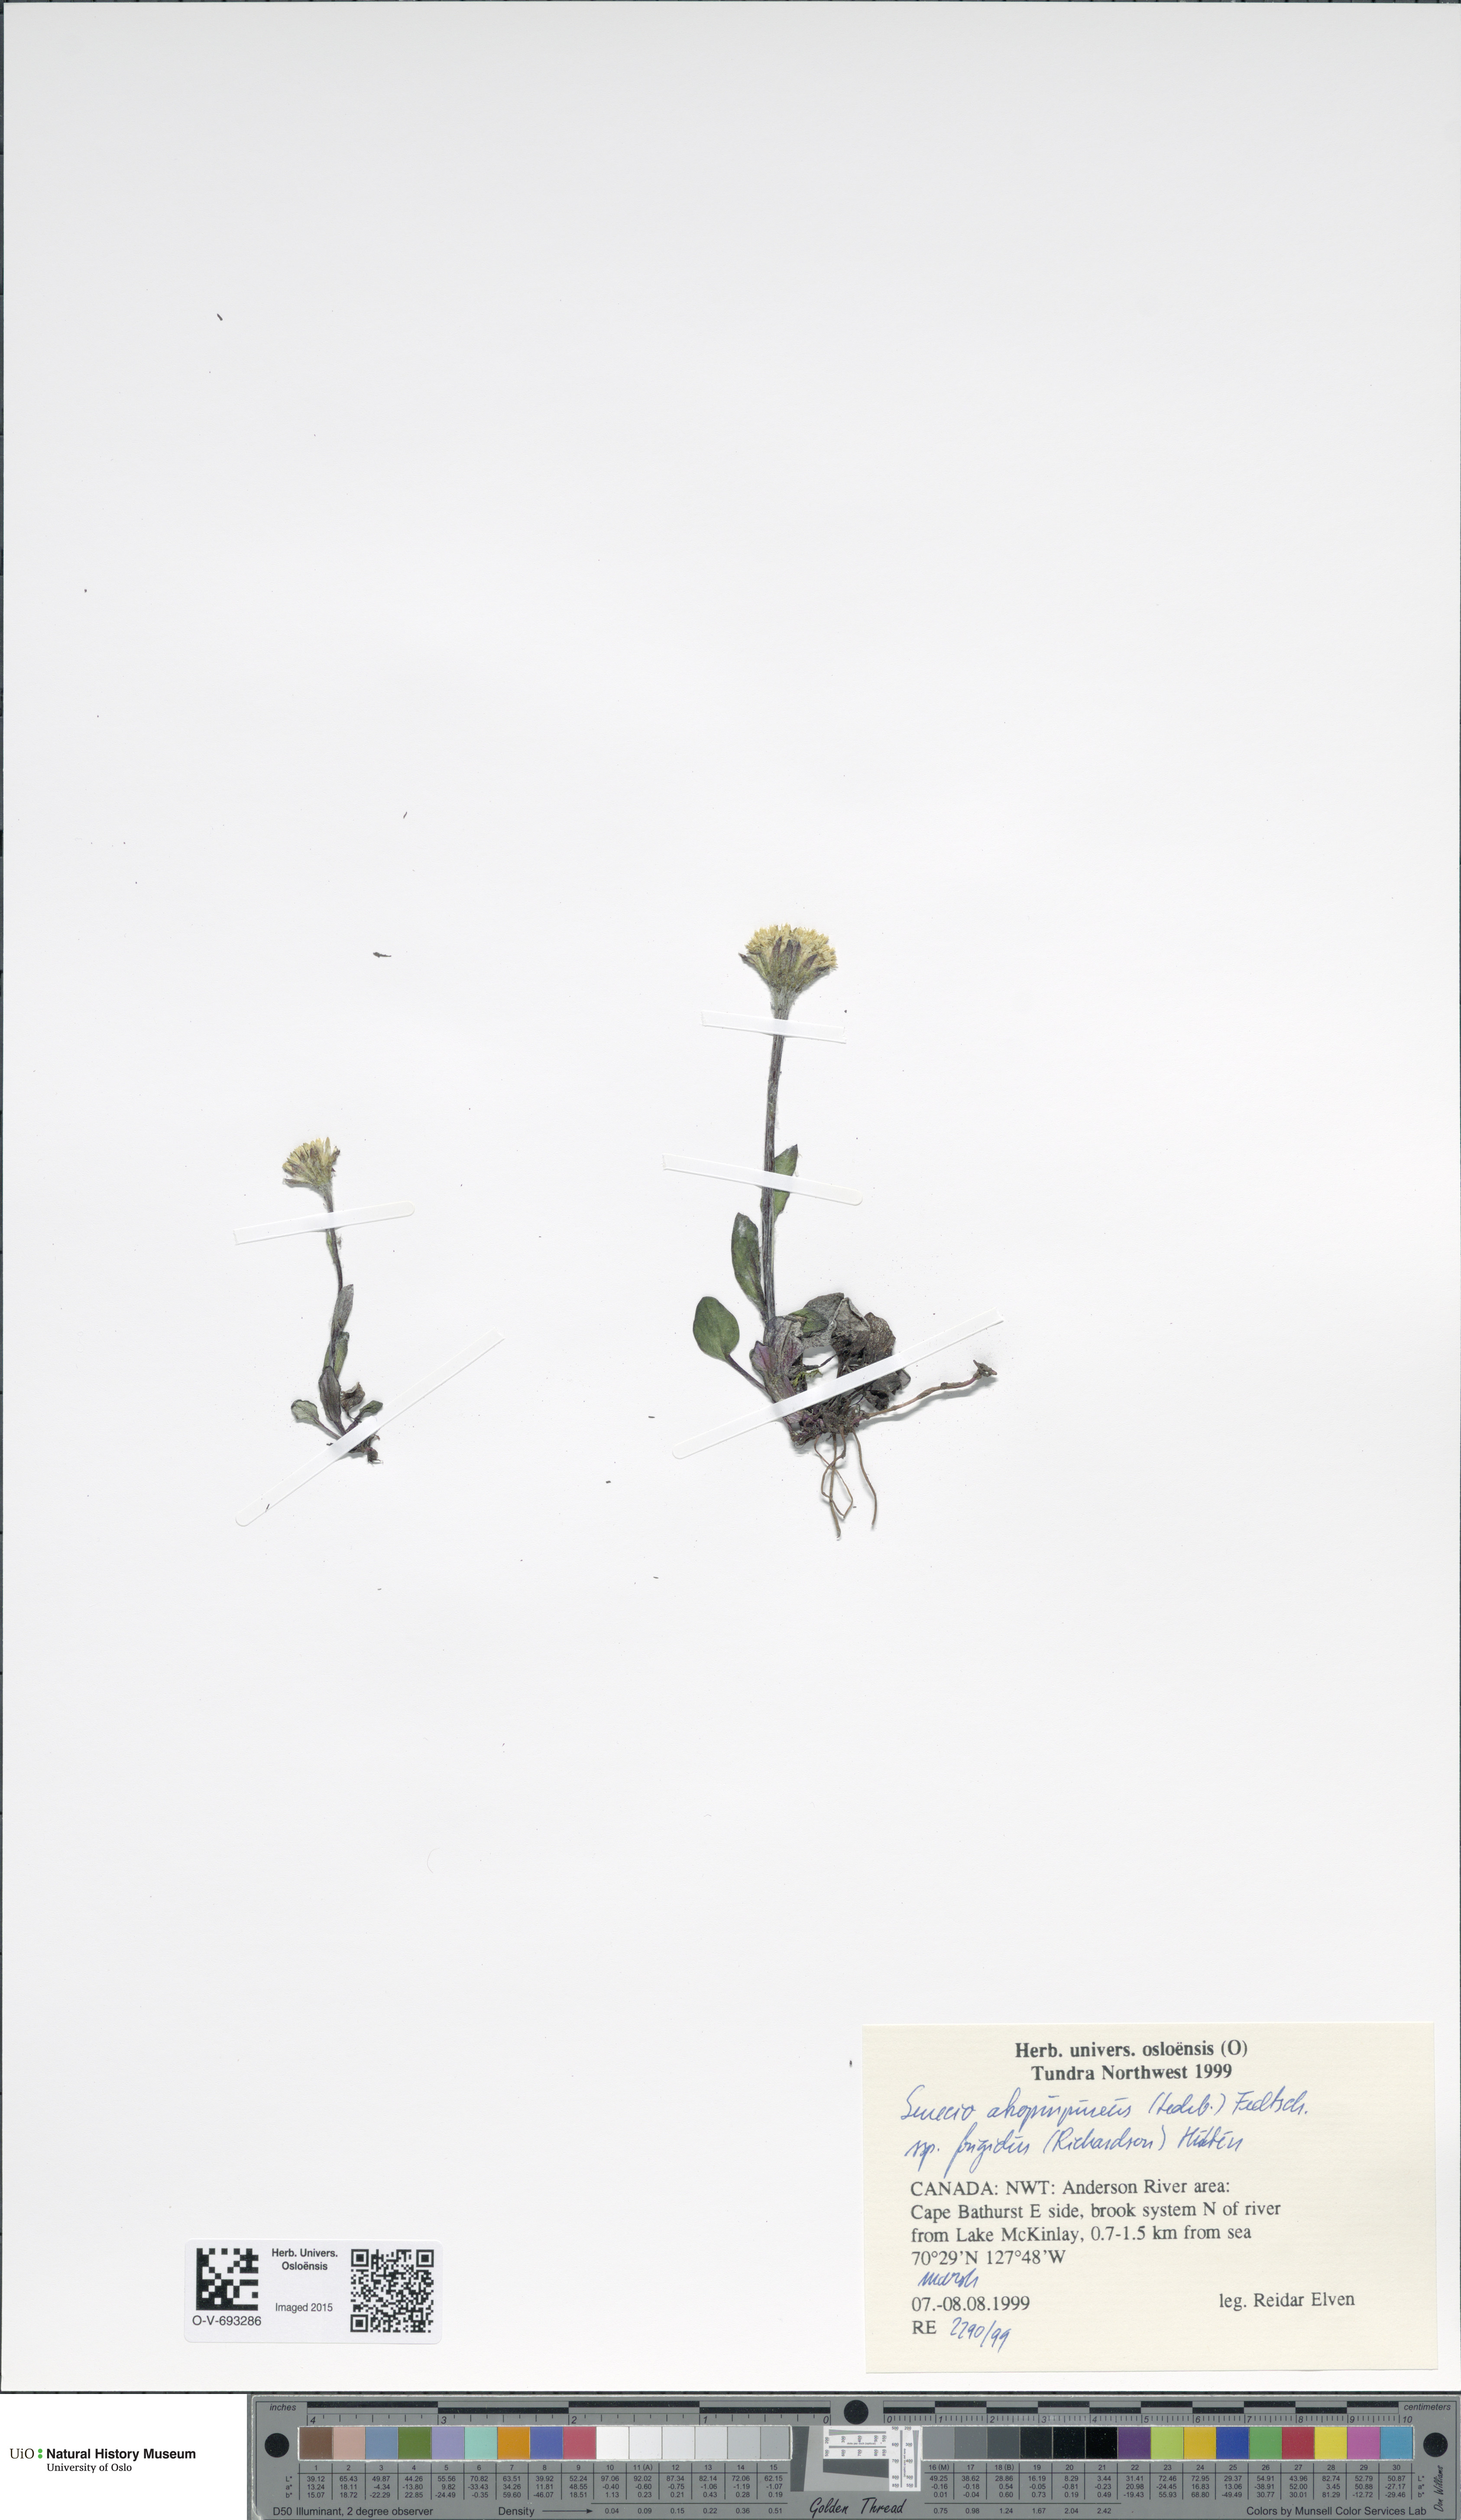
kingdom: Plantae
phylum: Tracheophyta
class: Magnoliopsida
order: Asterales
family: Asteraceae
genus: Tephroseris
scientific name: Tephroseris integrifolia
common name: Field fleawort
